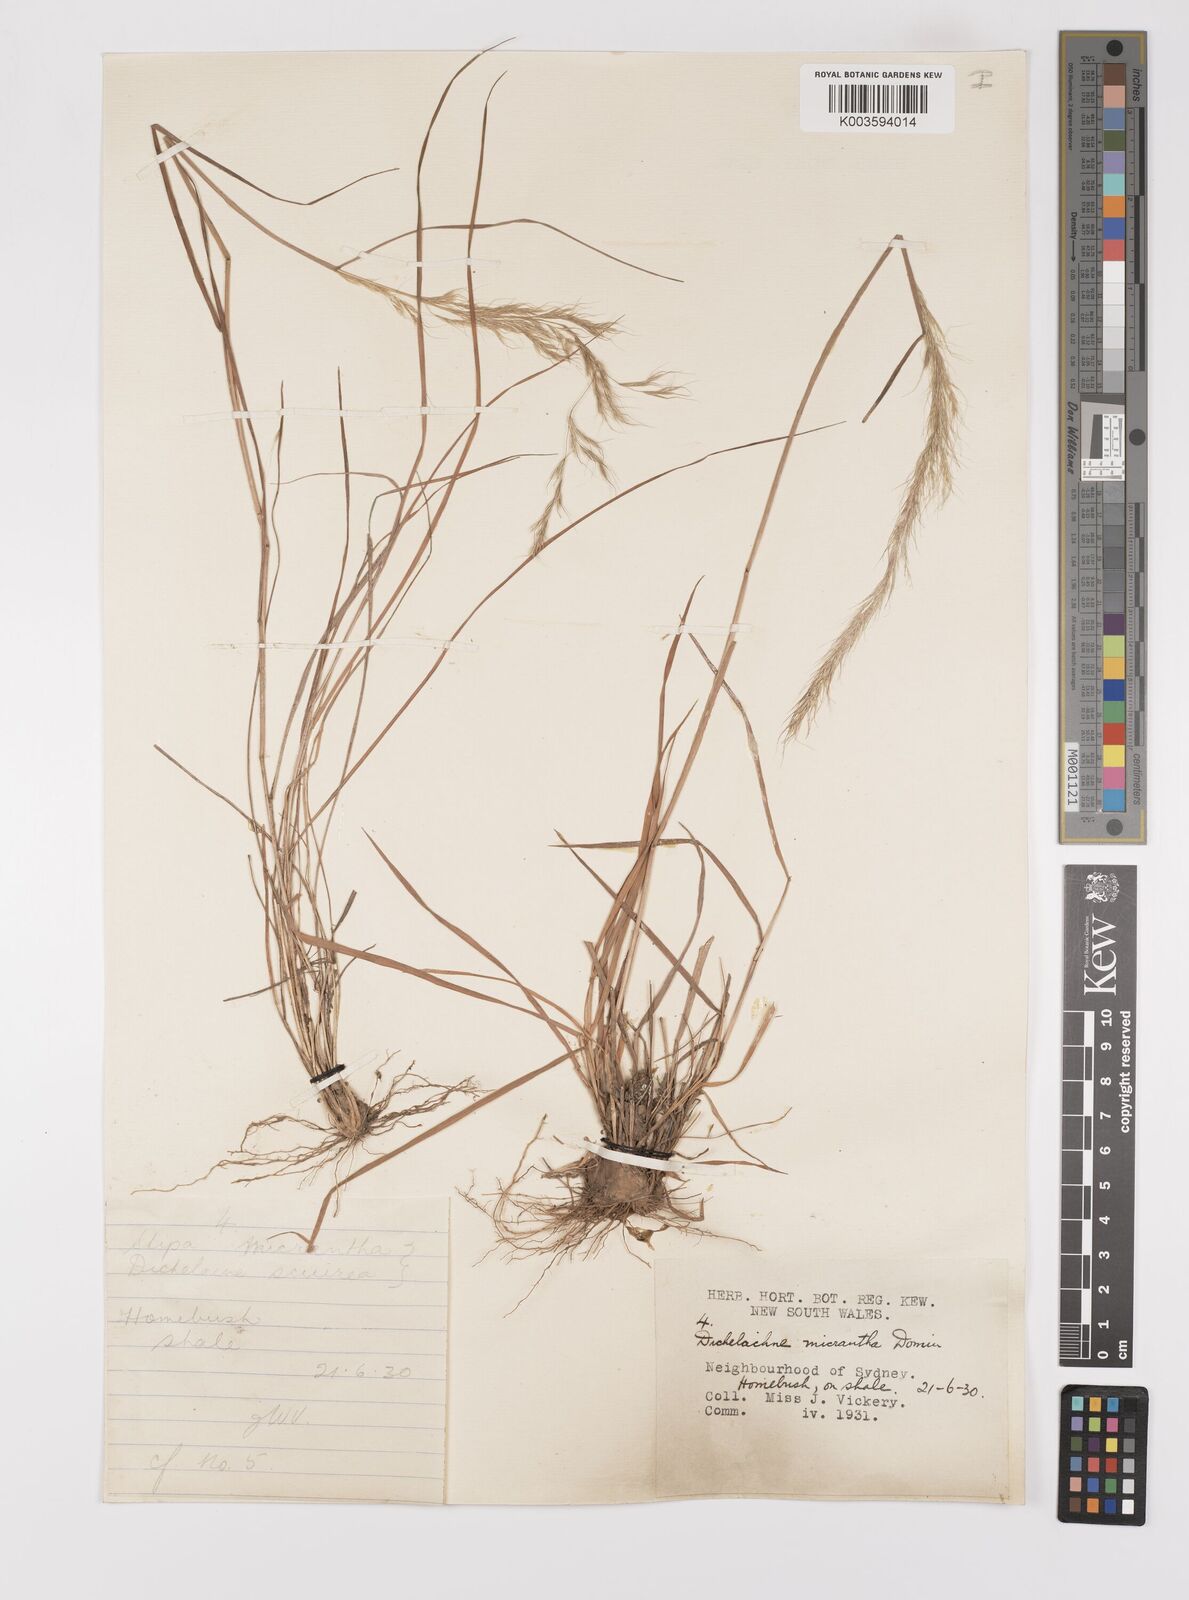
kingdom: Plantae
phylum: Tracheophyta
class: Liliopsida
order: Poales
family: Poaceae
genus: Dichelachne
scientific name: Dichelachne micrantha
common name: Plumegrass
